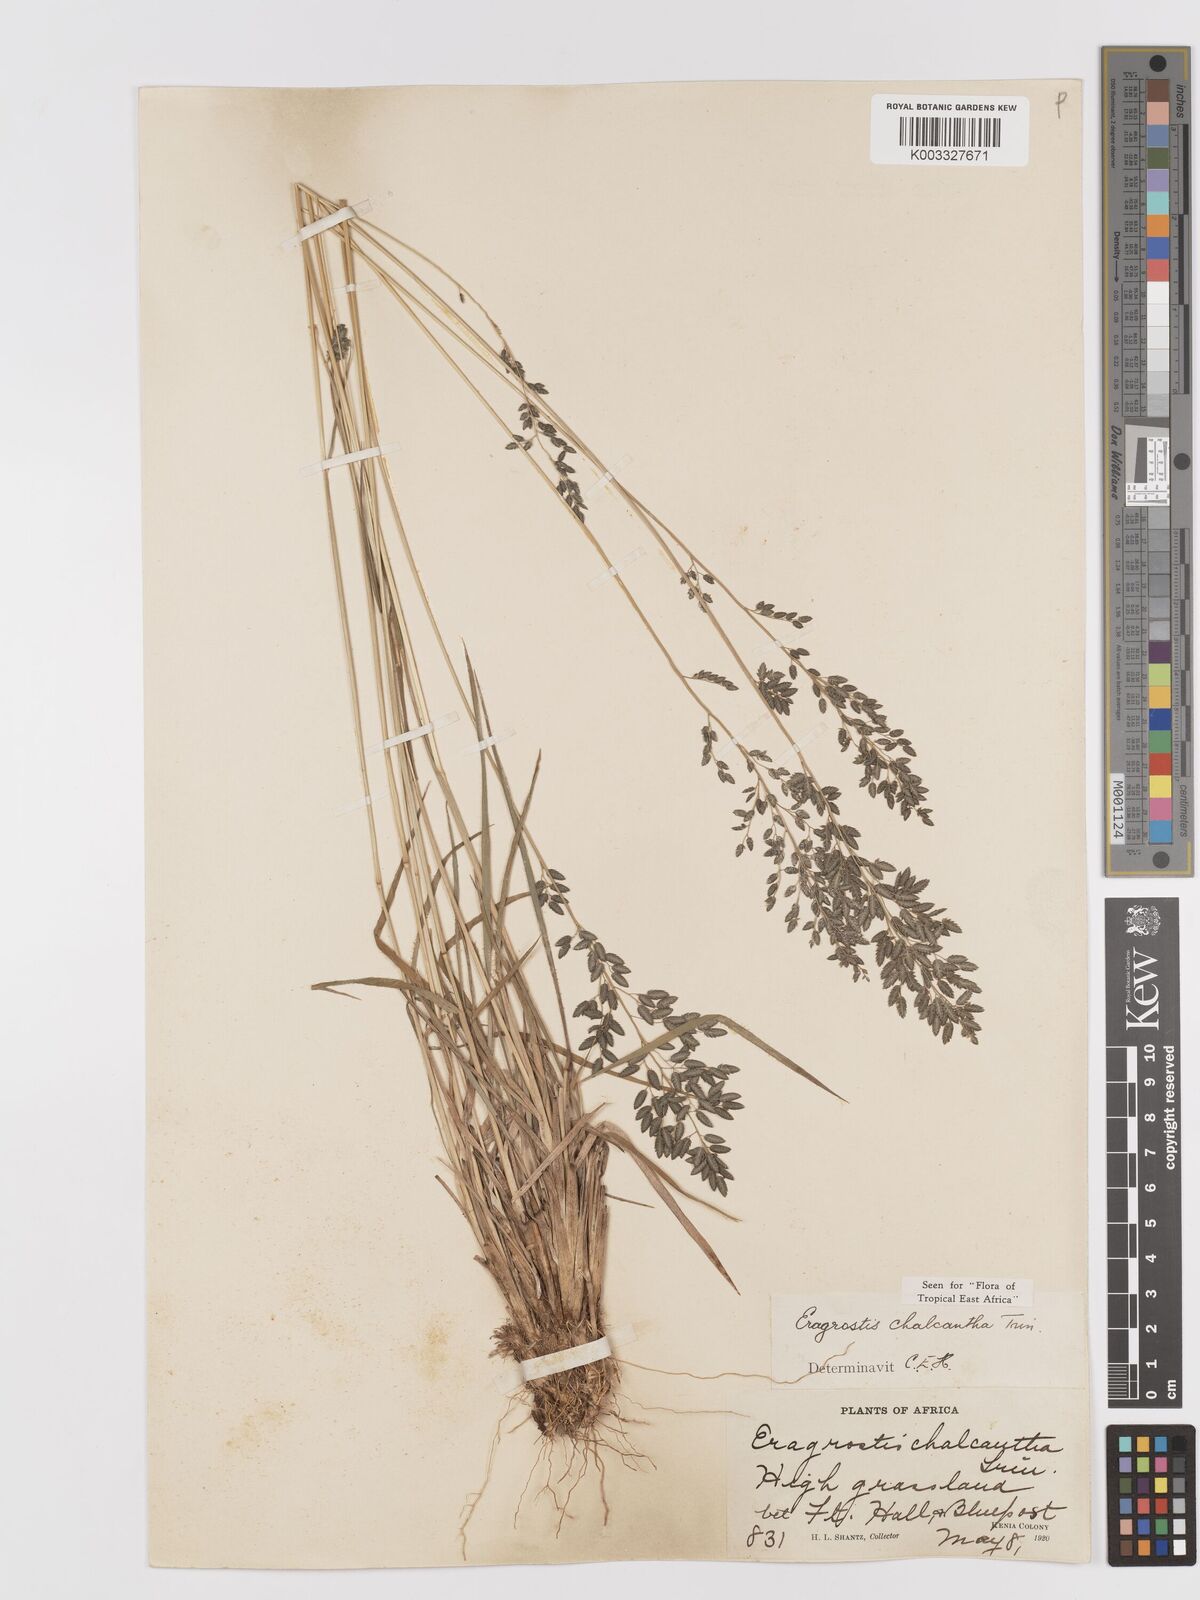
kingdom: Plantae
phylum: Tracheophyta
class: Liliopsida
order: Poales
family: Poaceae
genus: Eragrostis
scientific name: Eragrostis racemosa
